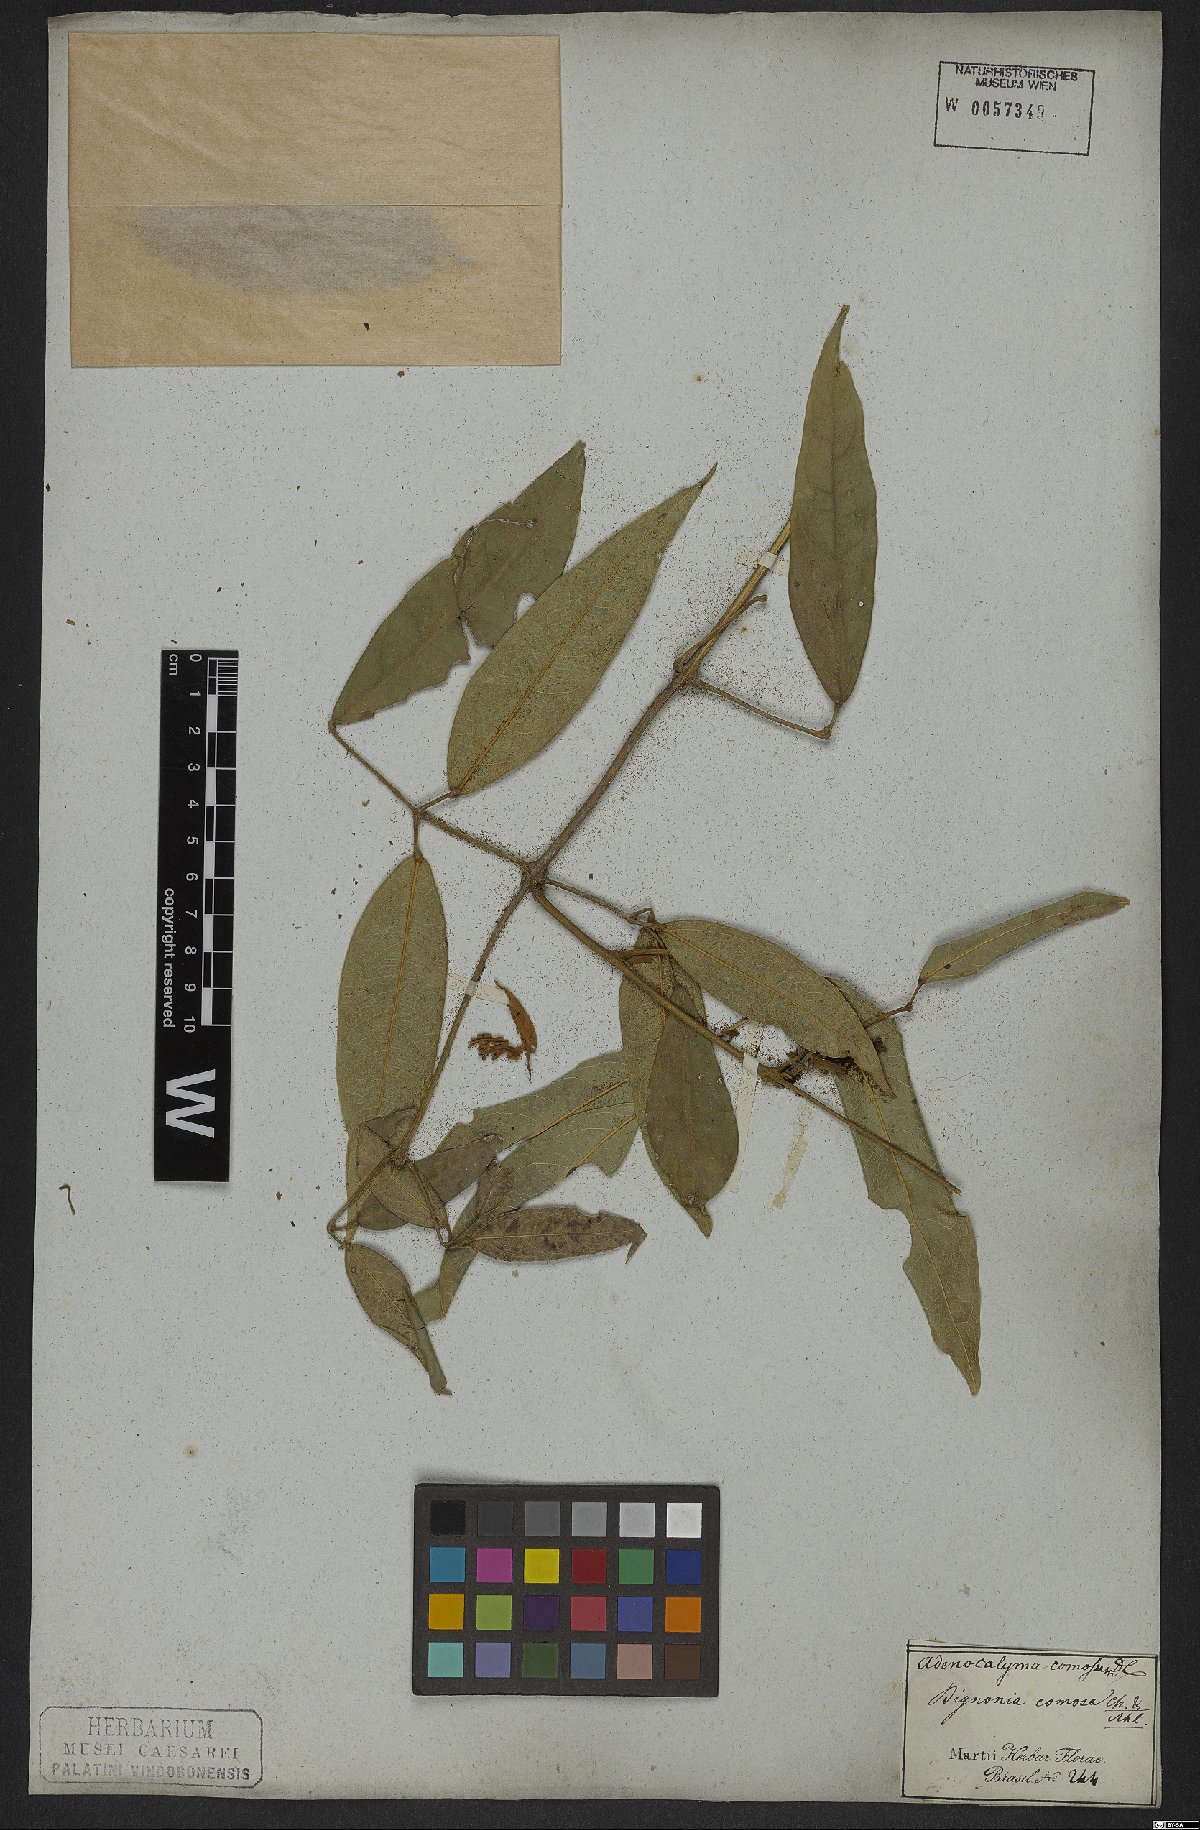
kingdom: Plantae
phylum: Tracheophyta
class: Magnoliopsida
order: Lamiales
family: Bignoniaceae
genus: Adenocalymma
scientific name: Adenocalymma acutissimum
